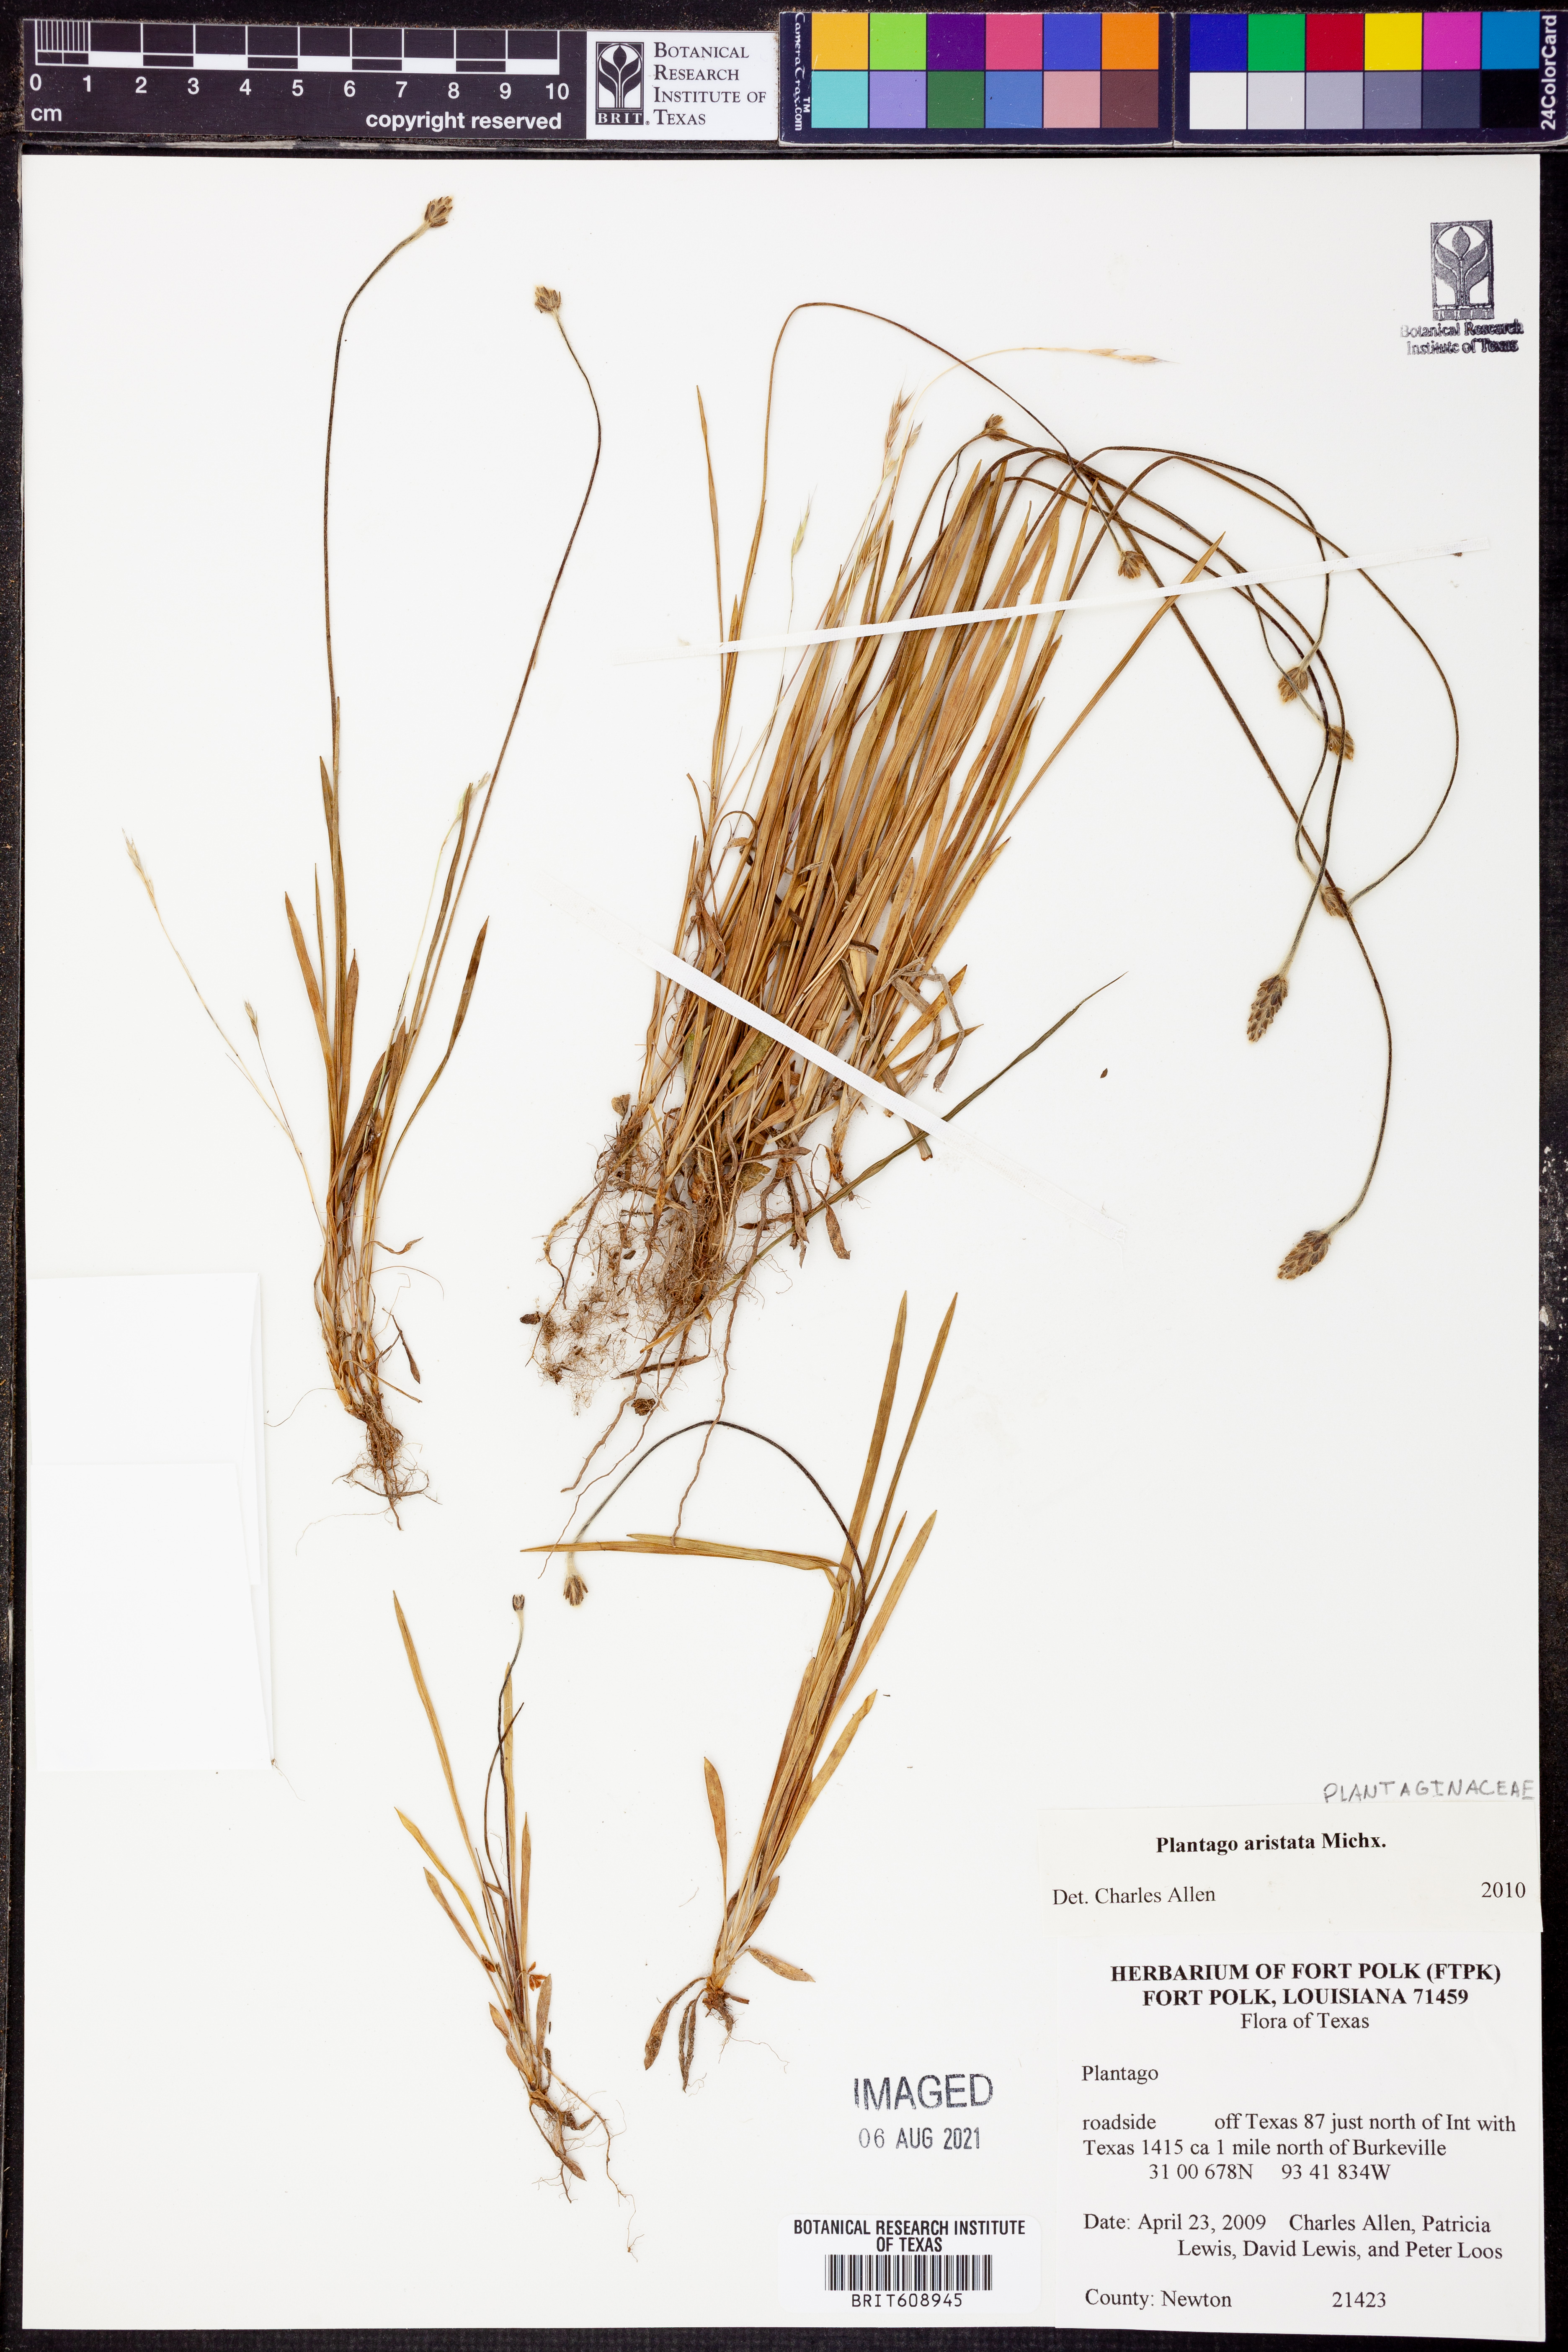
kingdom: Plantae
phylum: Tracheophyta
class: Magnoliopsida
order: Lamiales
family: Plantaginaceae
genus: Plantago
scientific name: Plantago aristata
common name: Bracted plantain
